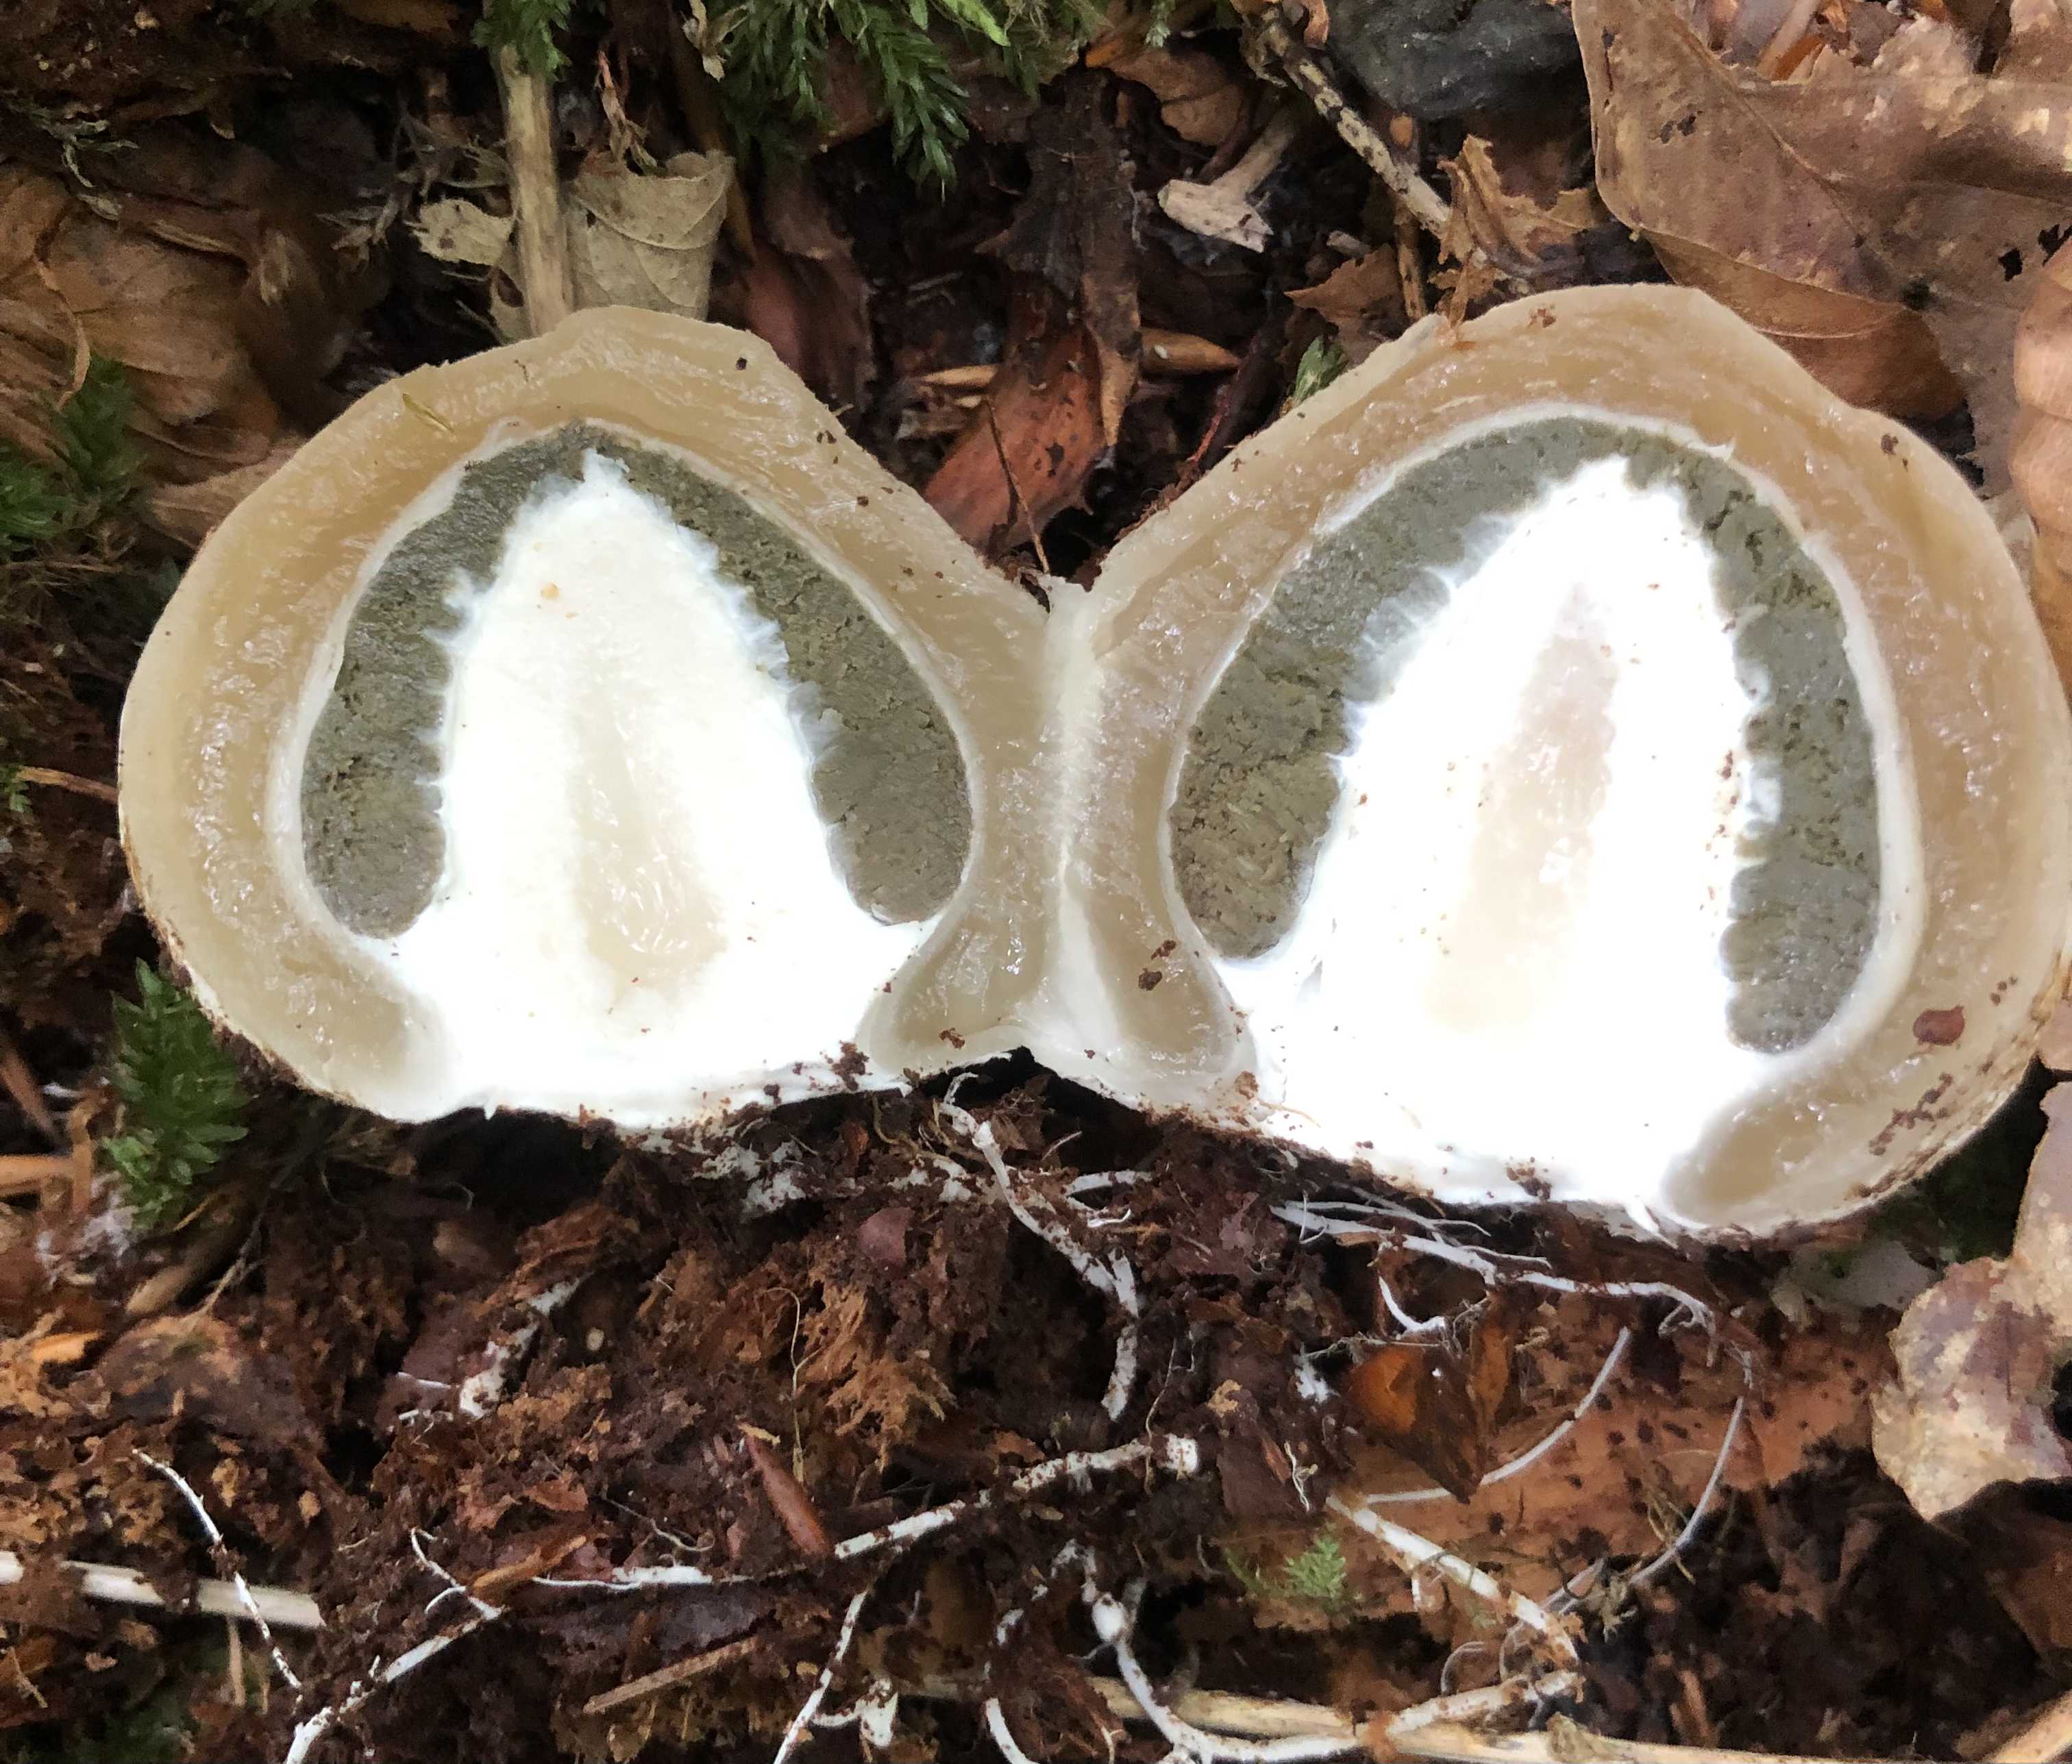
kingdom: Fungi
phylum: Basidiomycota
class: Agaricomycetes
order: Phallales
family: Phallaceae
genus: Phallus
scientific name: Phallus impudicus
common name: almindelig stinksvamp
